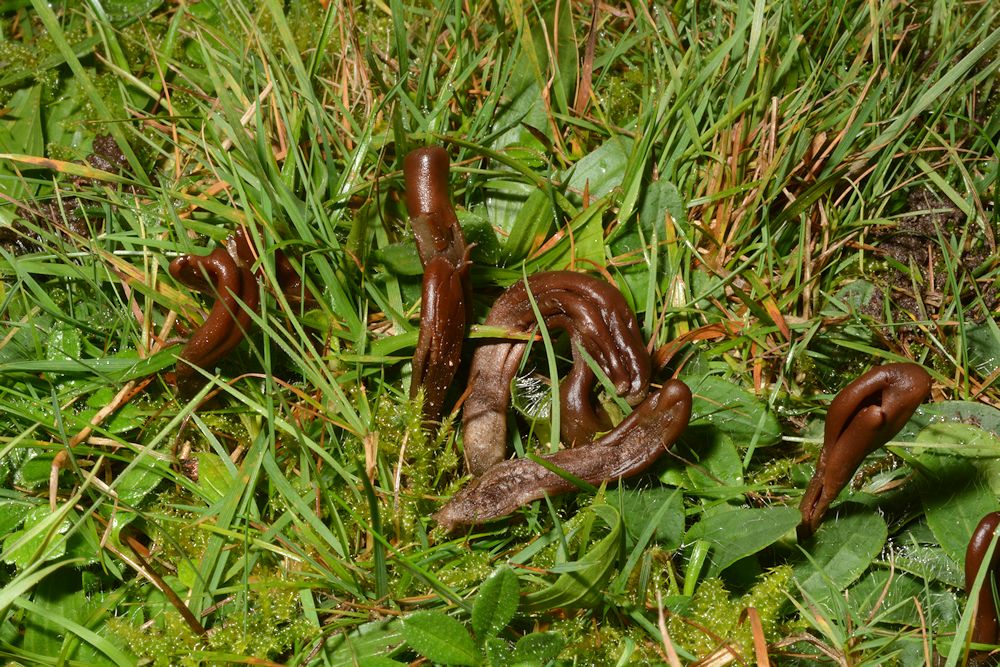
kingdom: Fungi
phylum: Ascomycota
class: Geoglossomycetes
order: Geoglossales
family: Geoglossaceae
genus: Geoglossum
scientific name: Geoglossum atropurpureum
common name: purpursort farvetunge
